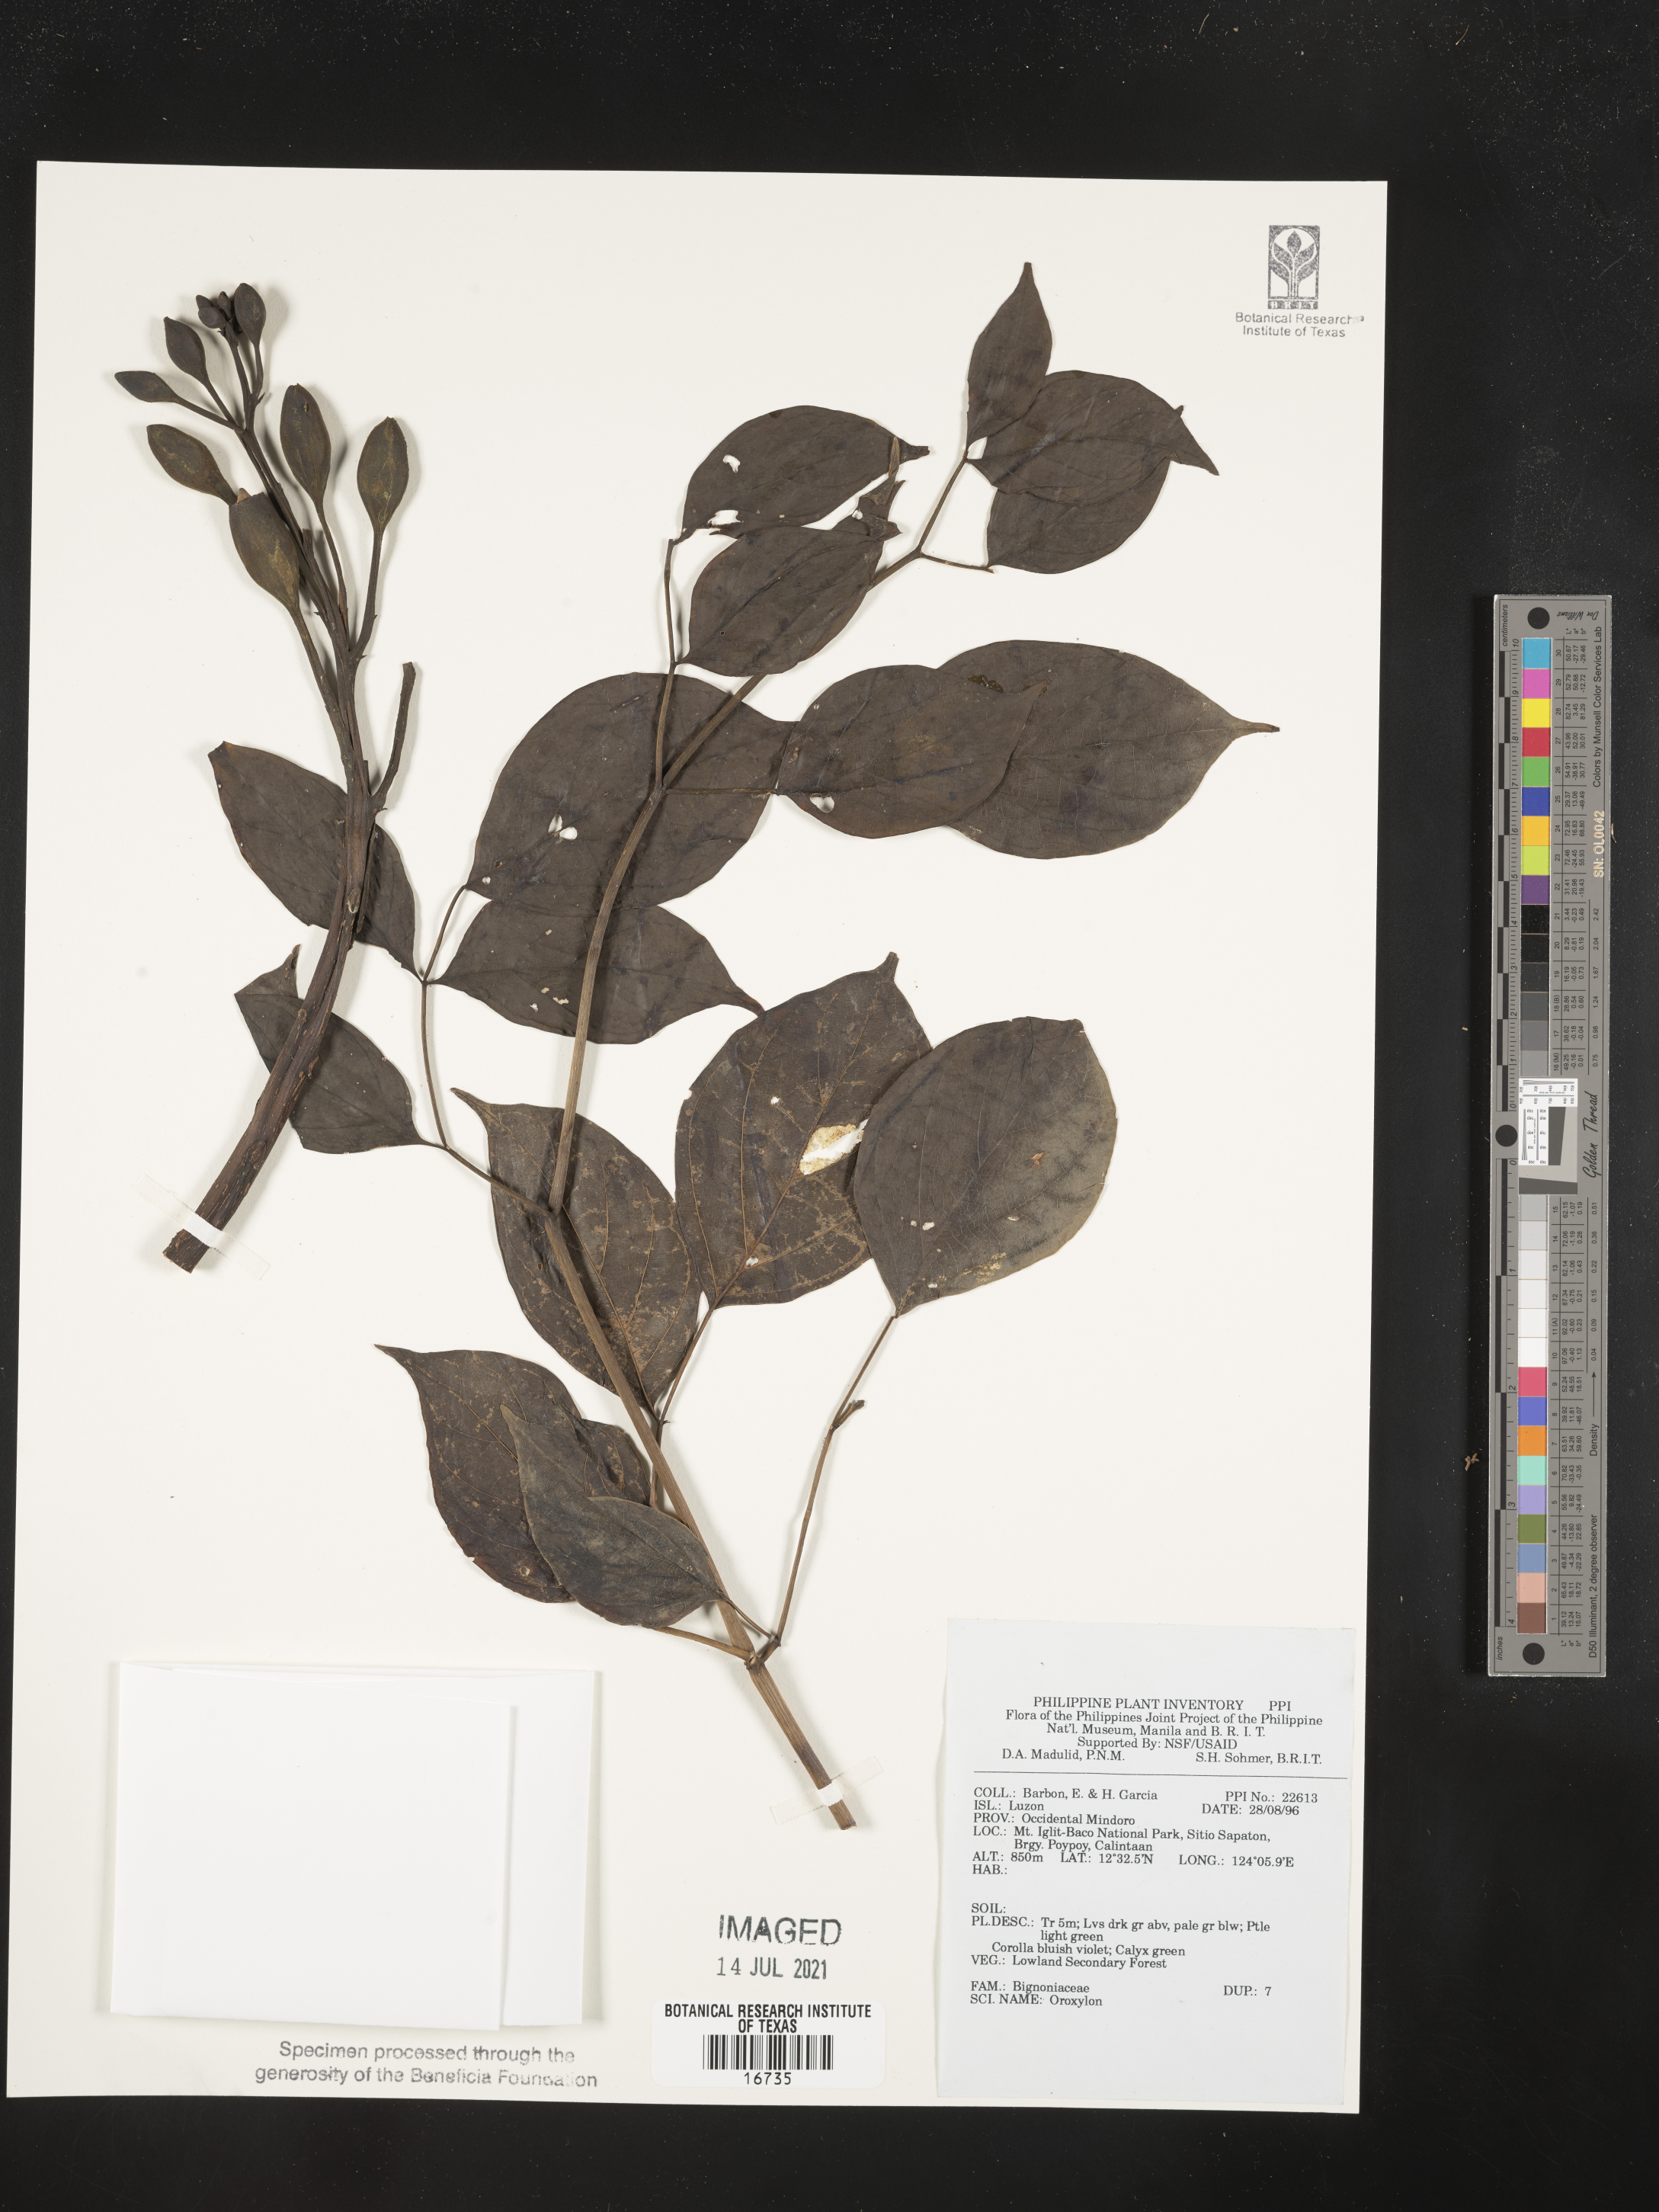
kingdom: Plantae
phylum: Tracheophyta
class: Magnoliopsida
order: Lamiales
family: Bignoniaceae
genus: Oroxylum
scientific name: Oroxylum
